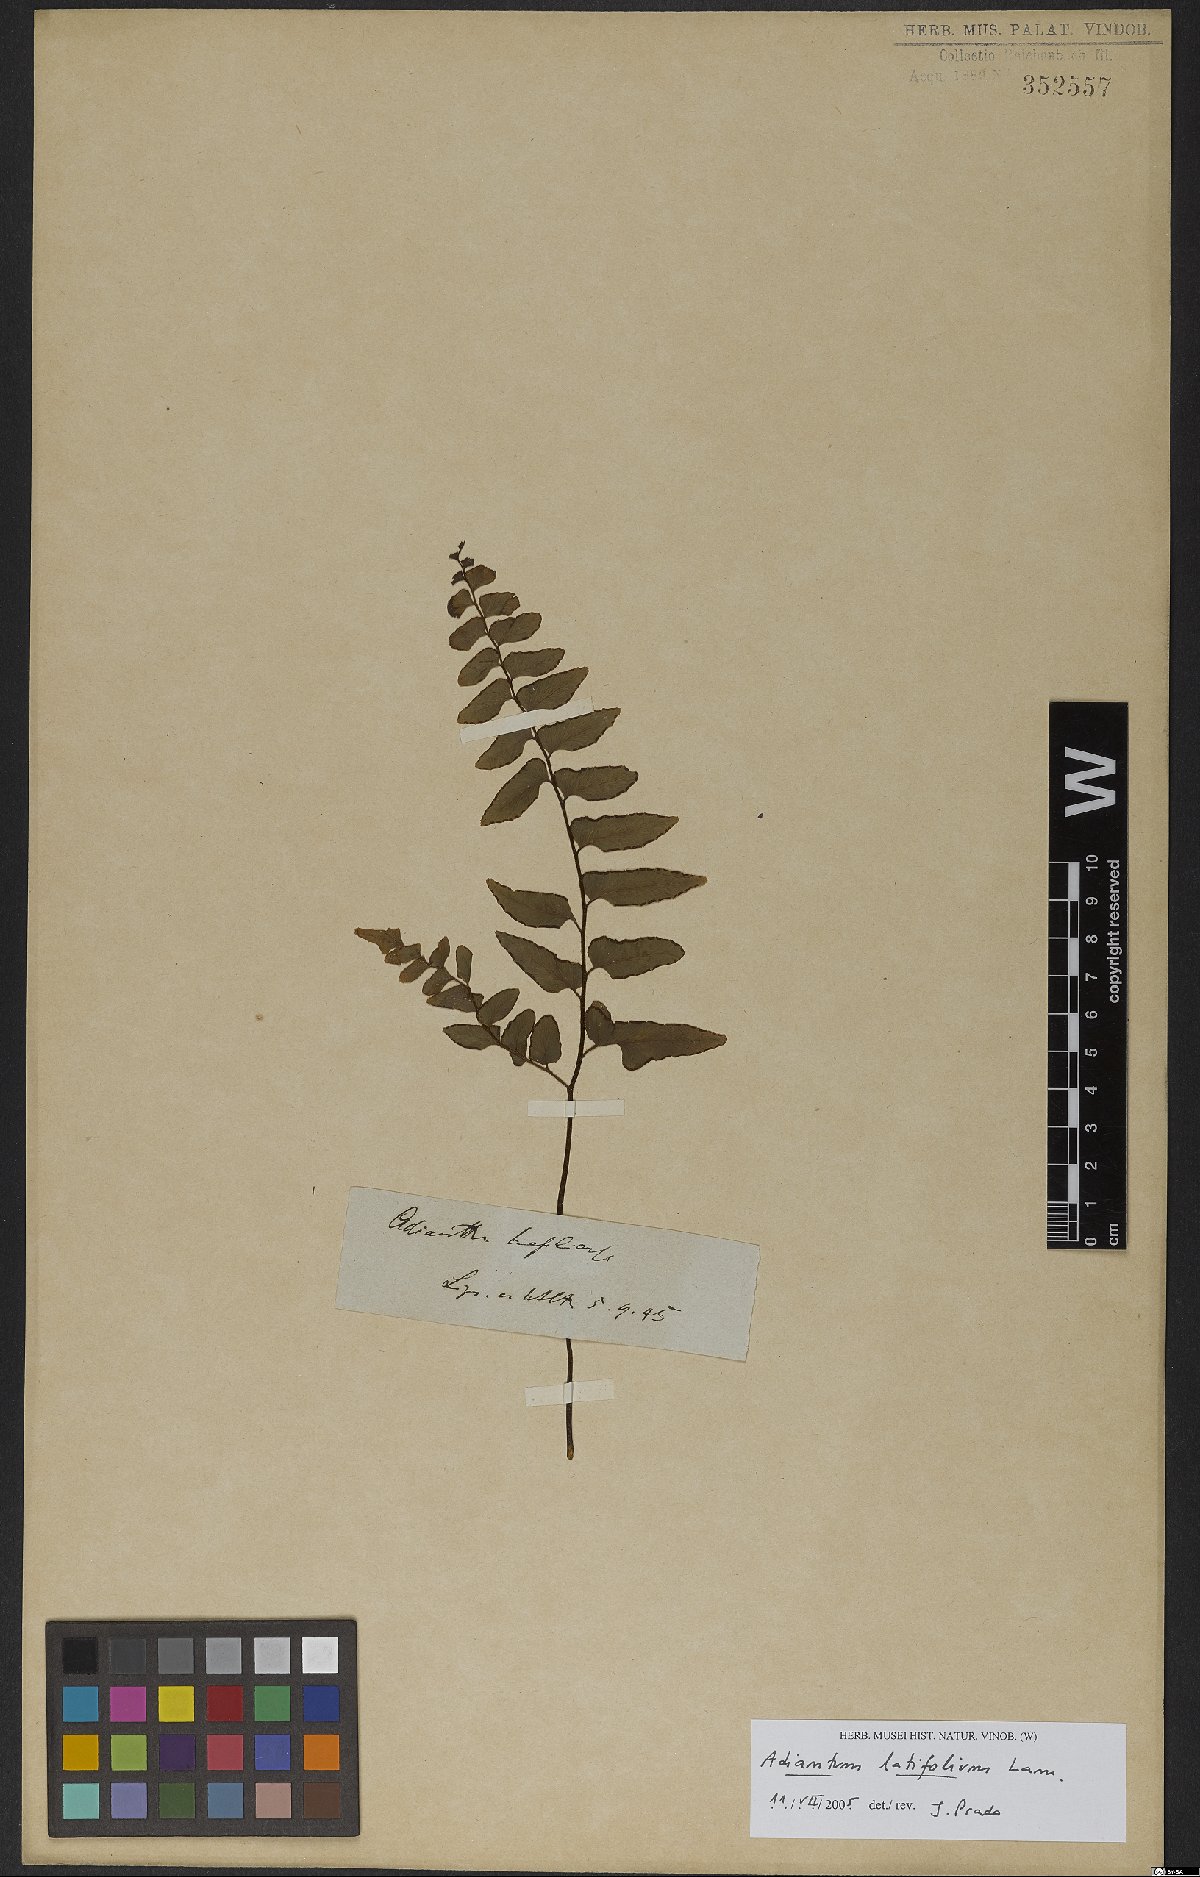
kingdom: Plantae
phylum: Tracheophyta
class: Polypodiopsida
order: Polypodiales
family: Pteridaceae
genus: Adiantum
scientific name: Adiantum latifolium
